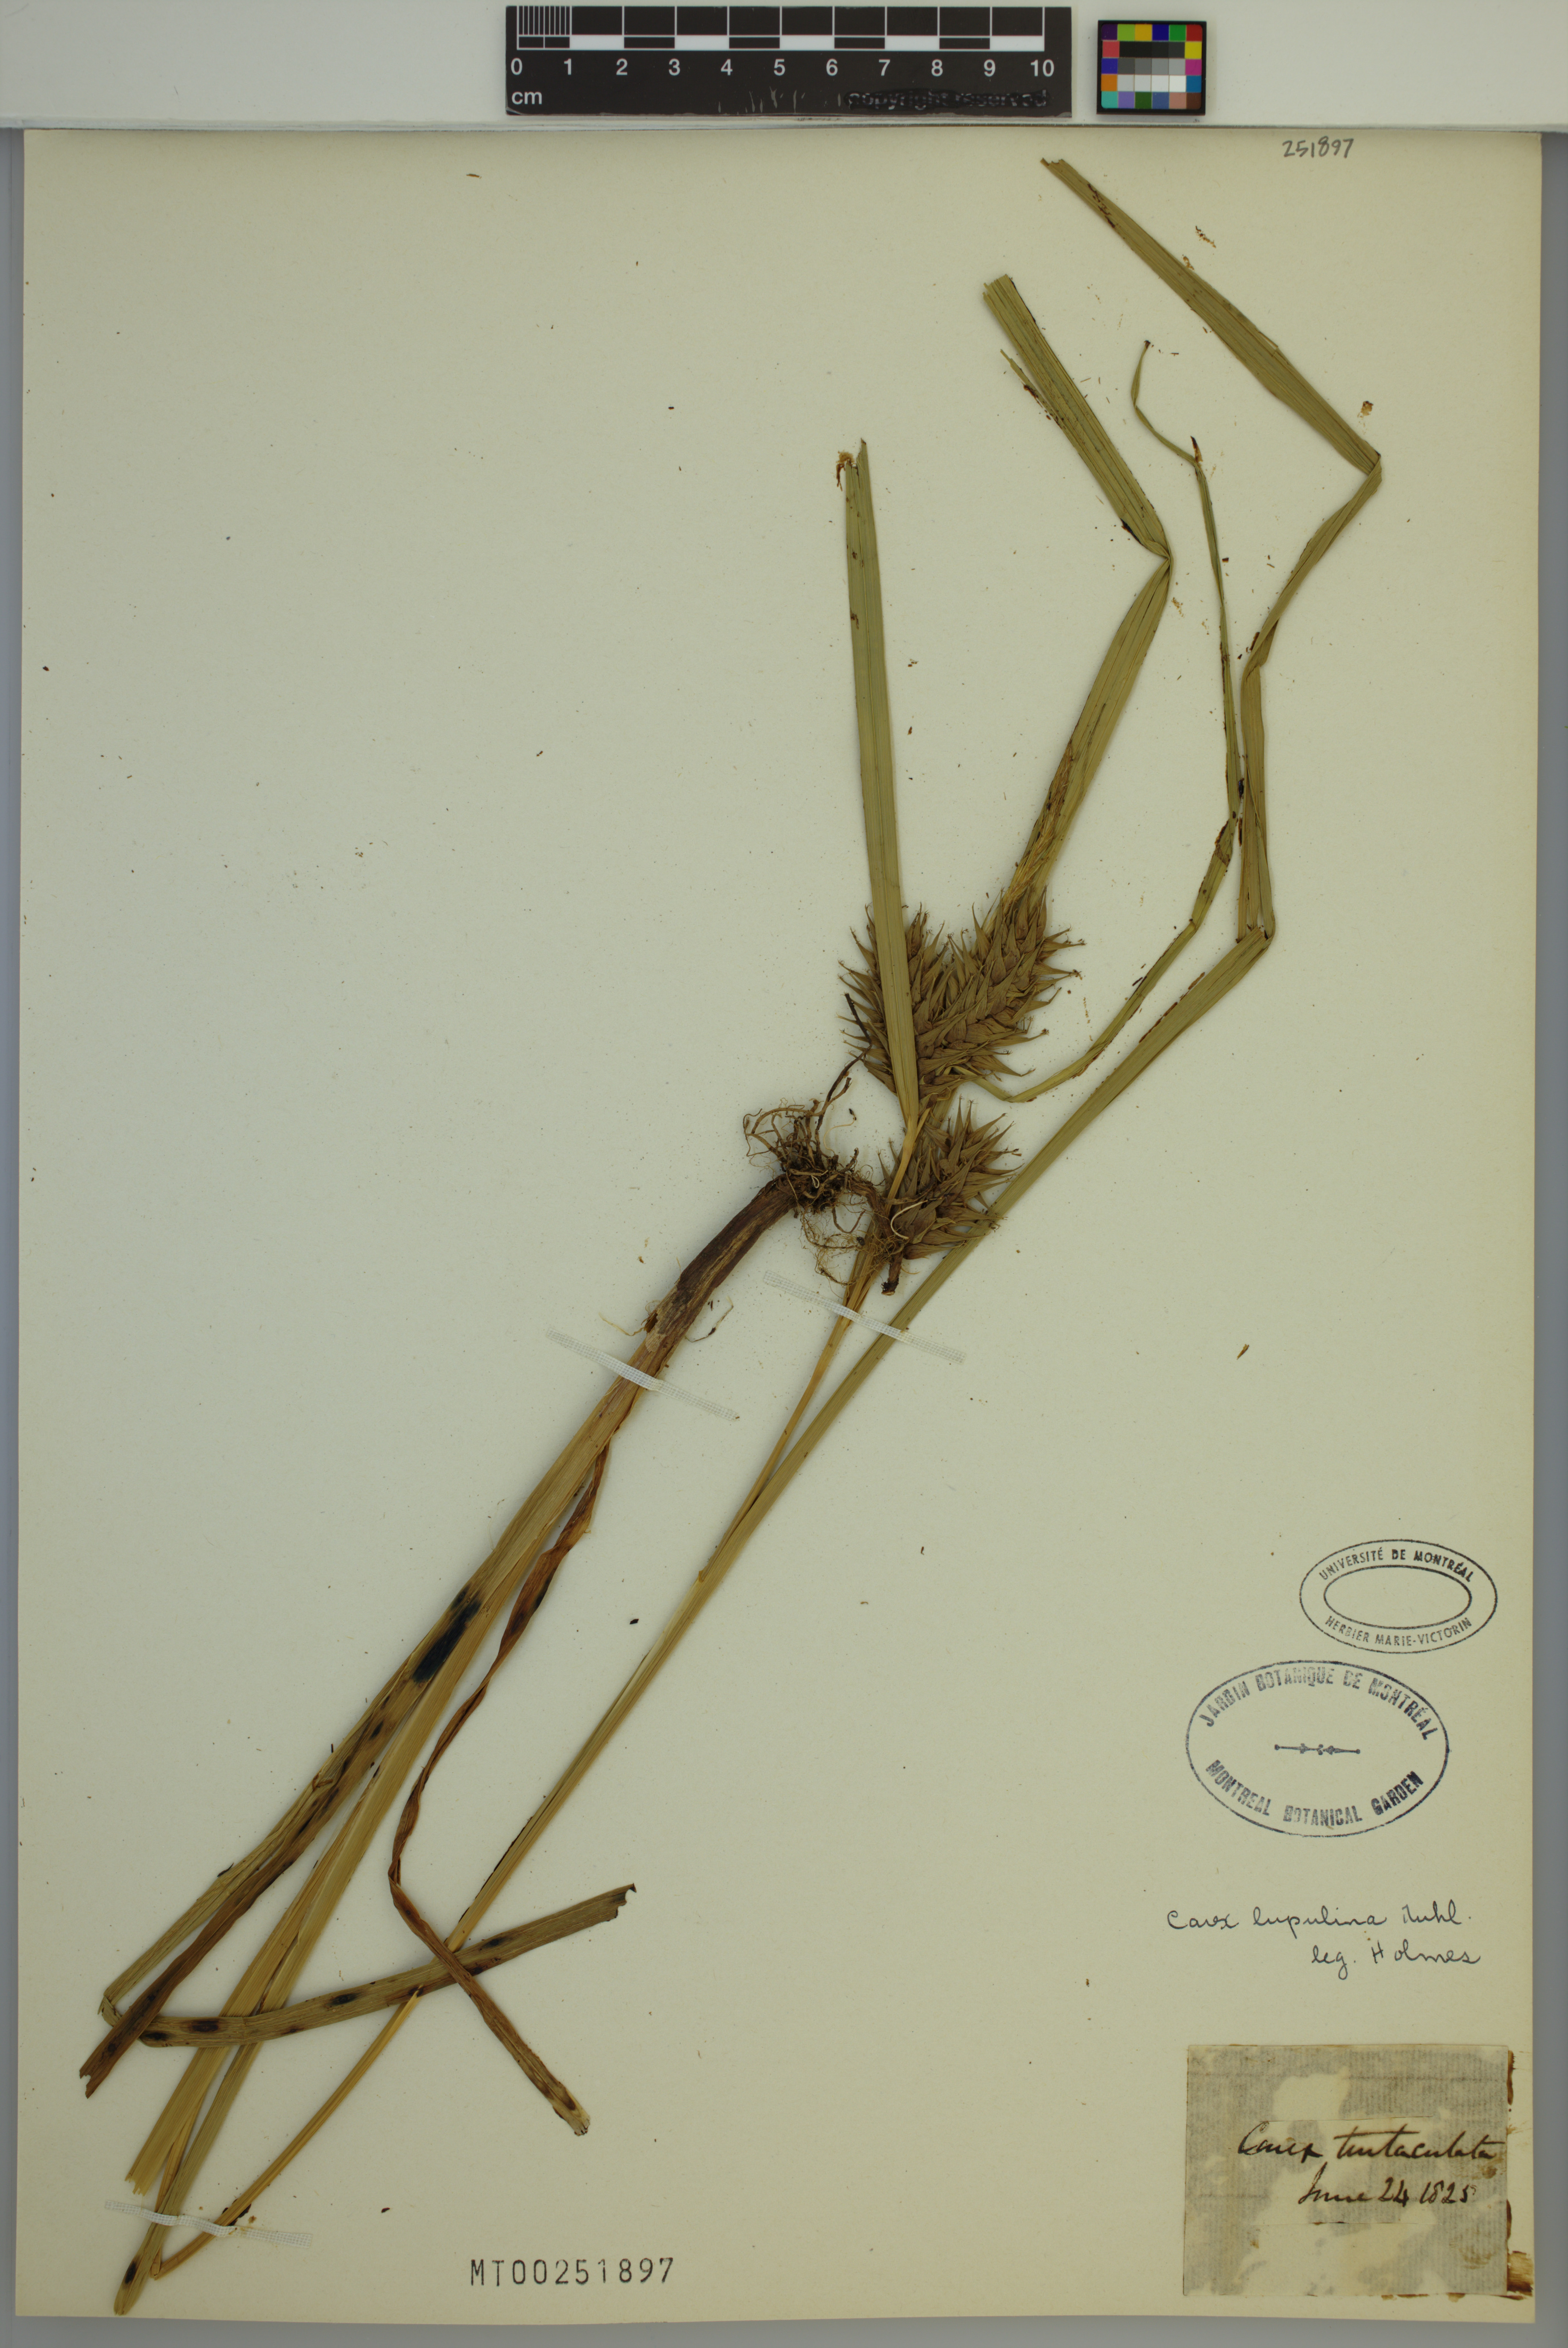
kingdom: Plantae
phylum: Tracheophyta
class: Liliopsida
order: Poales
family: Cyperaceae
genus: Carex
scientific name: Carex lupulina
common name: Hop sedge
